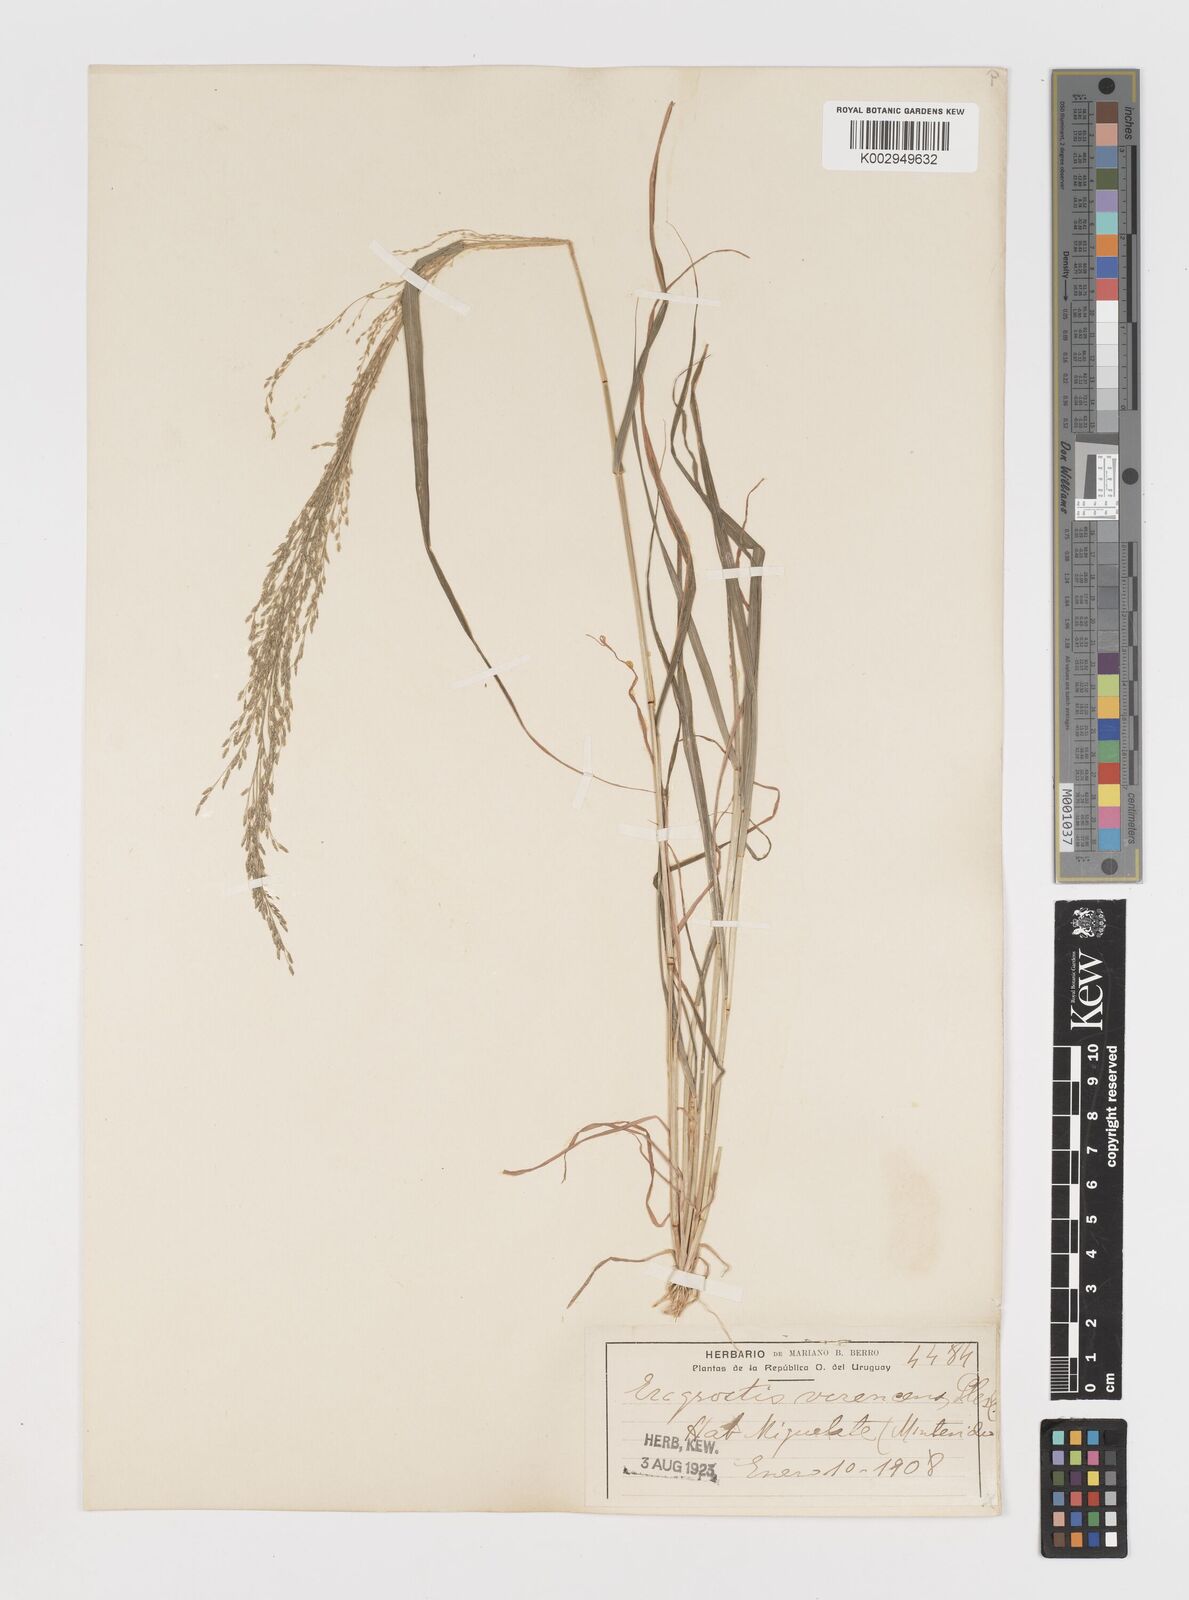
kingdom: Plantae
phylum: Tracheophyta
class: Liliopsida
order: Poales
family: Poaceae
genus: Eragrostis
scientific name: Eragrostis pilosa
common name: Indian lovegrass
